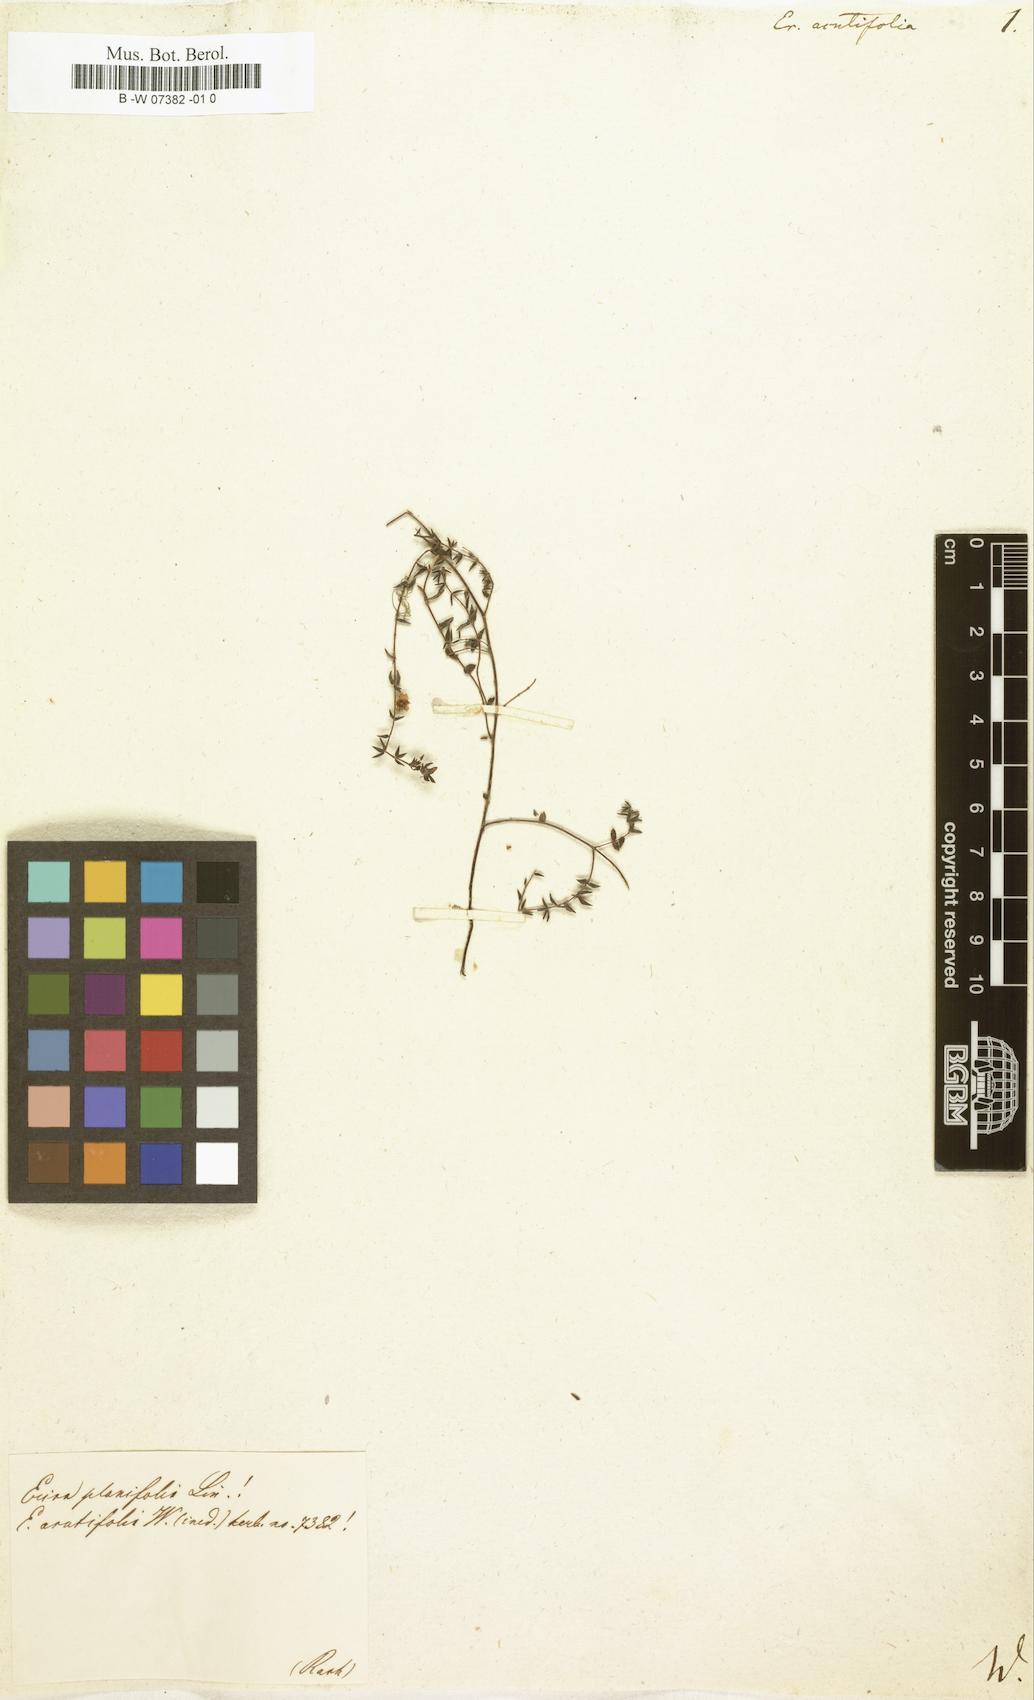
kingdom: Plantae
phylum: Tracheophyta
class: Magnoliopsida
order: Ericales
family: Ericaceae
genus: Erica
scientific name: Erica glabella
